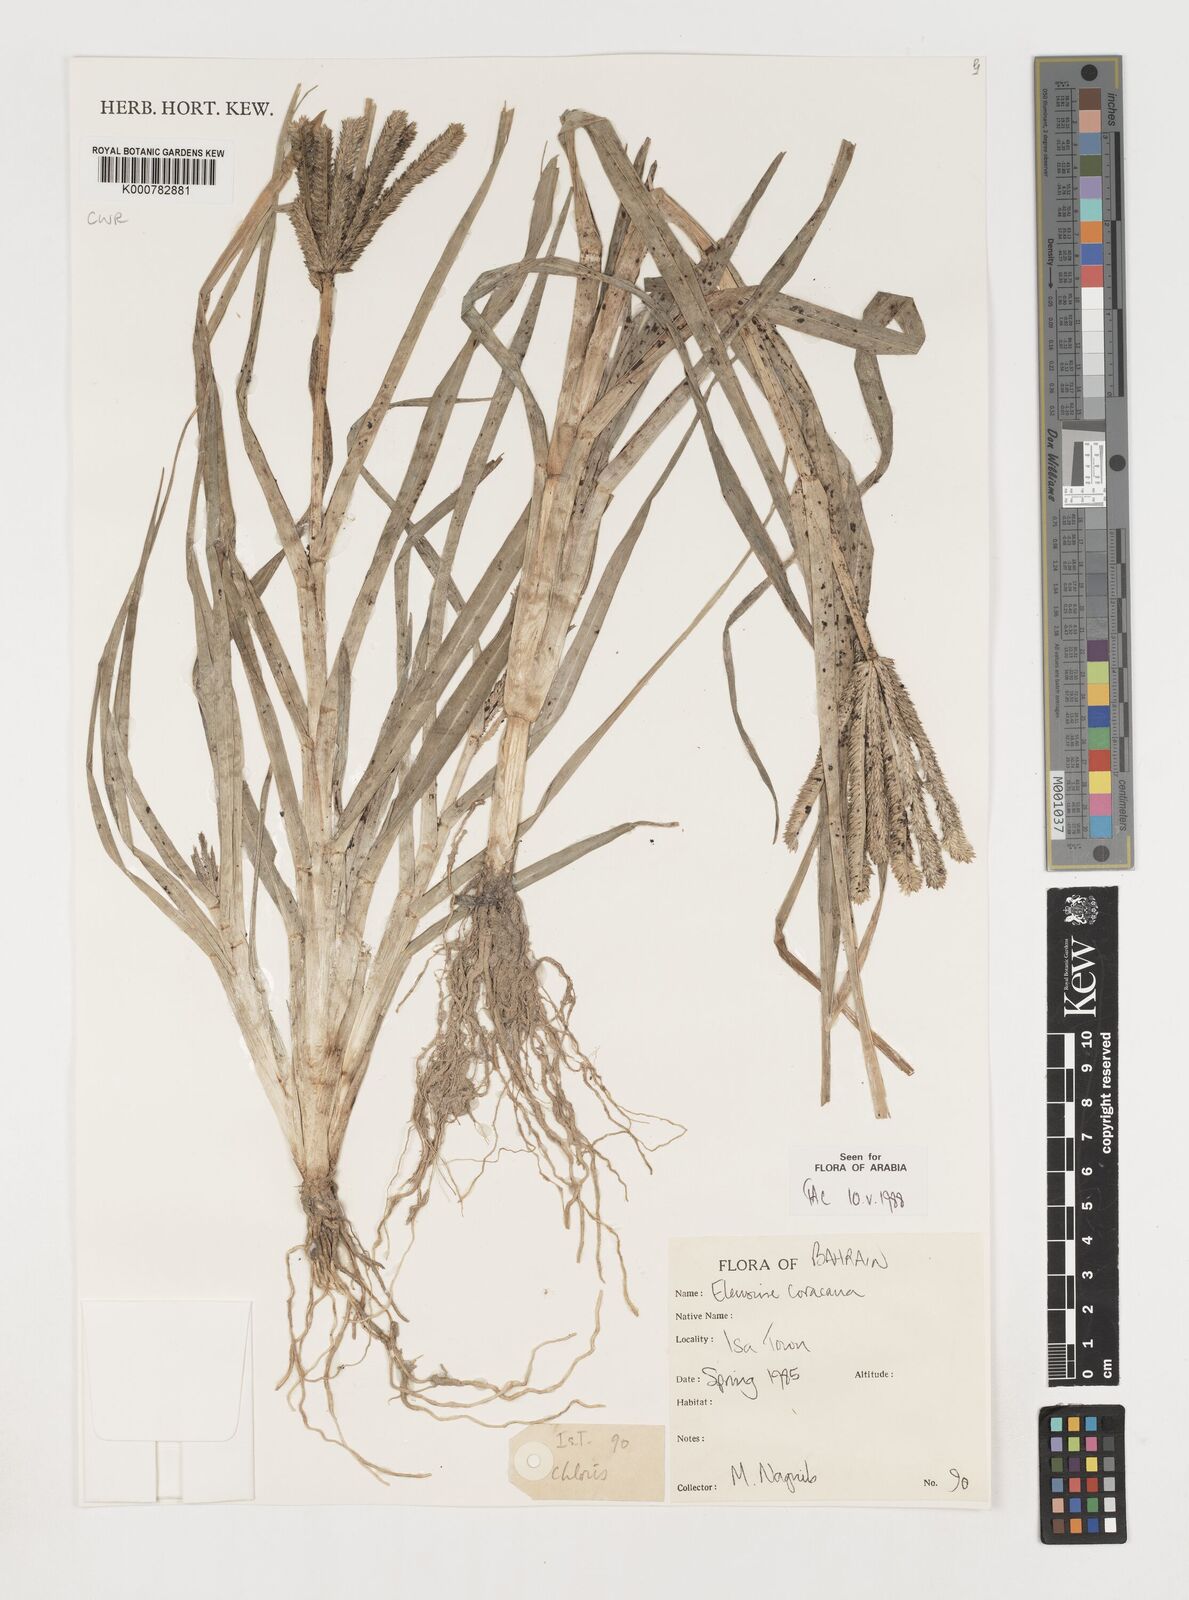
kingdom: Plantae
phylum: Tracheophyta
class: Liliopsida
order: Poales
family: Poaceae
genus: Eleusine
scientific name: Eleusine coracana
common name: Finger millet
